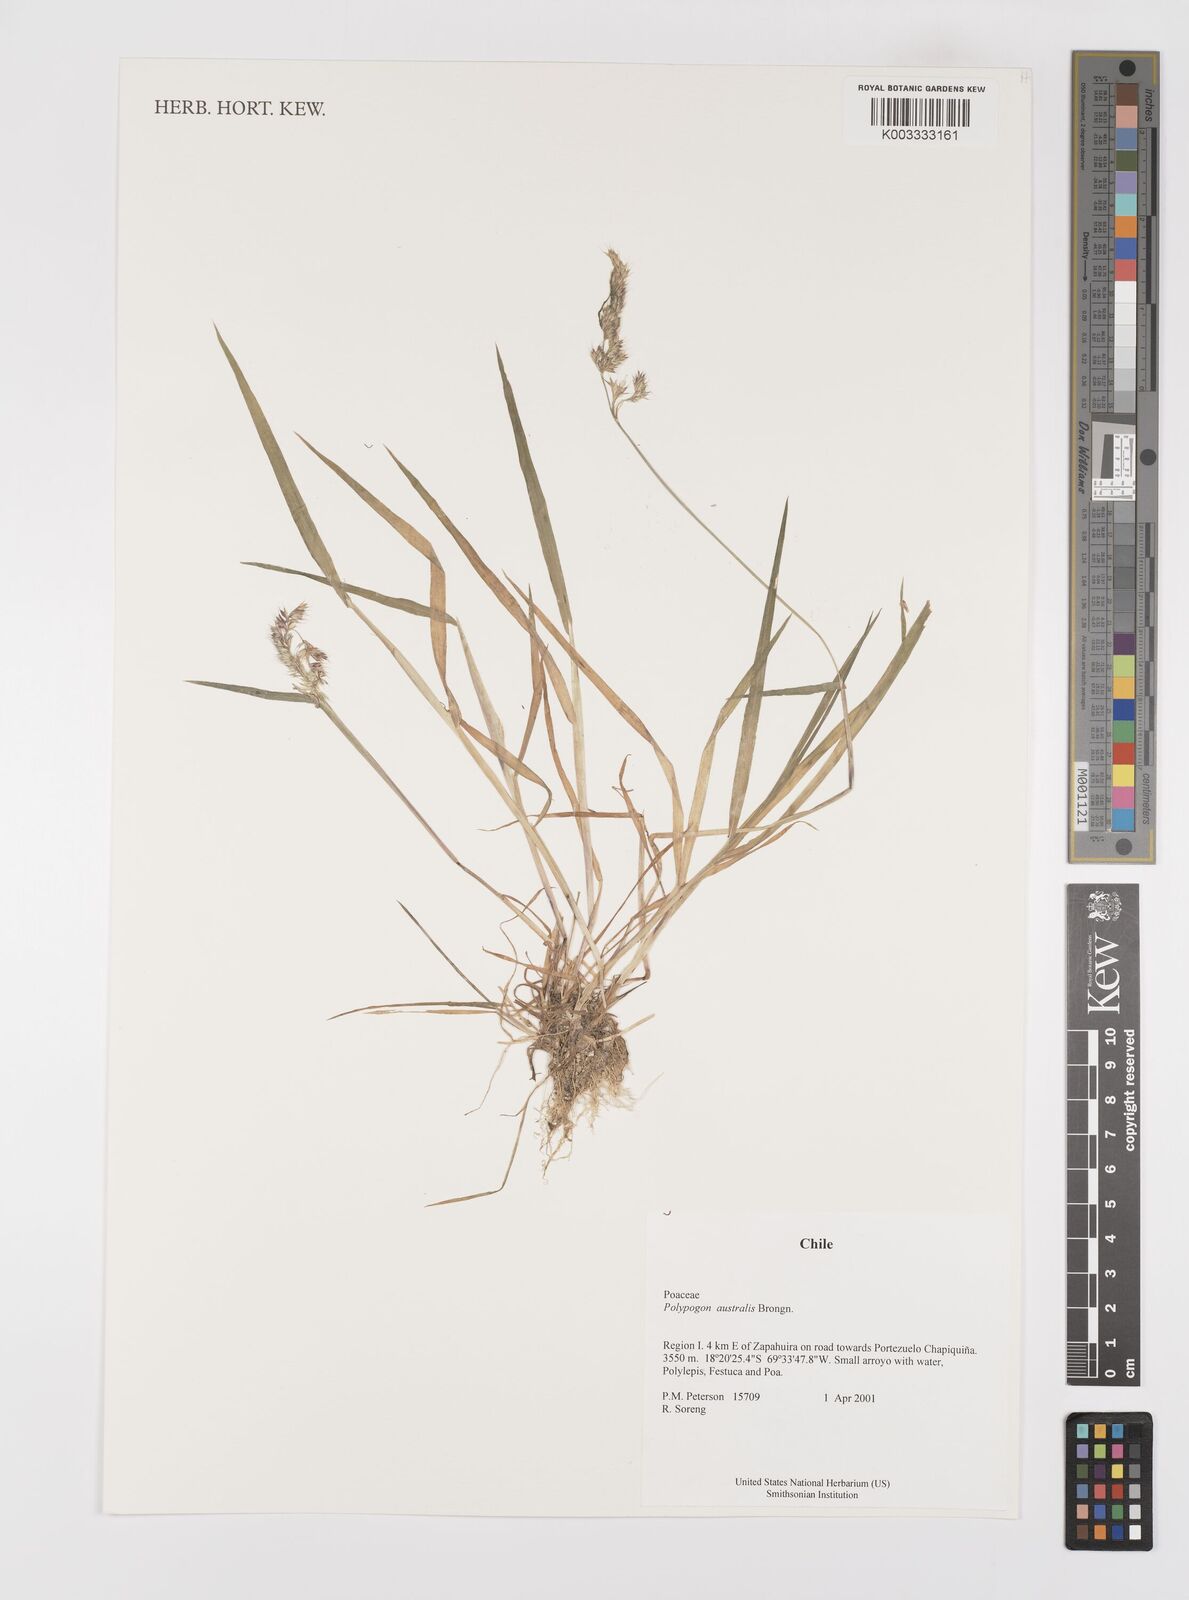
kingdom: Plantae
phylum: Tracheophyta
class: Liliopsida
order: Poales
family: Poaceae
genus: Polypogon
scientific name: Polypogon australis
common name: Chilean rabbitsfoot grass
